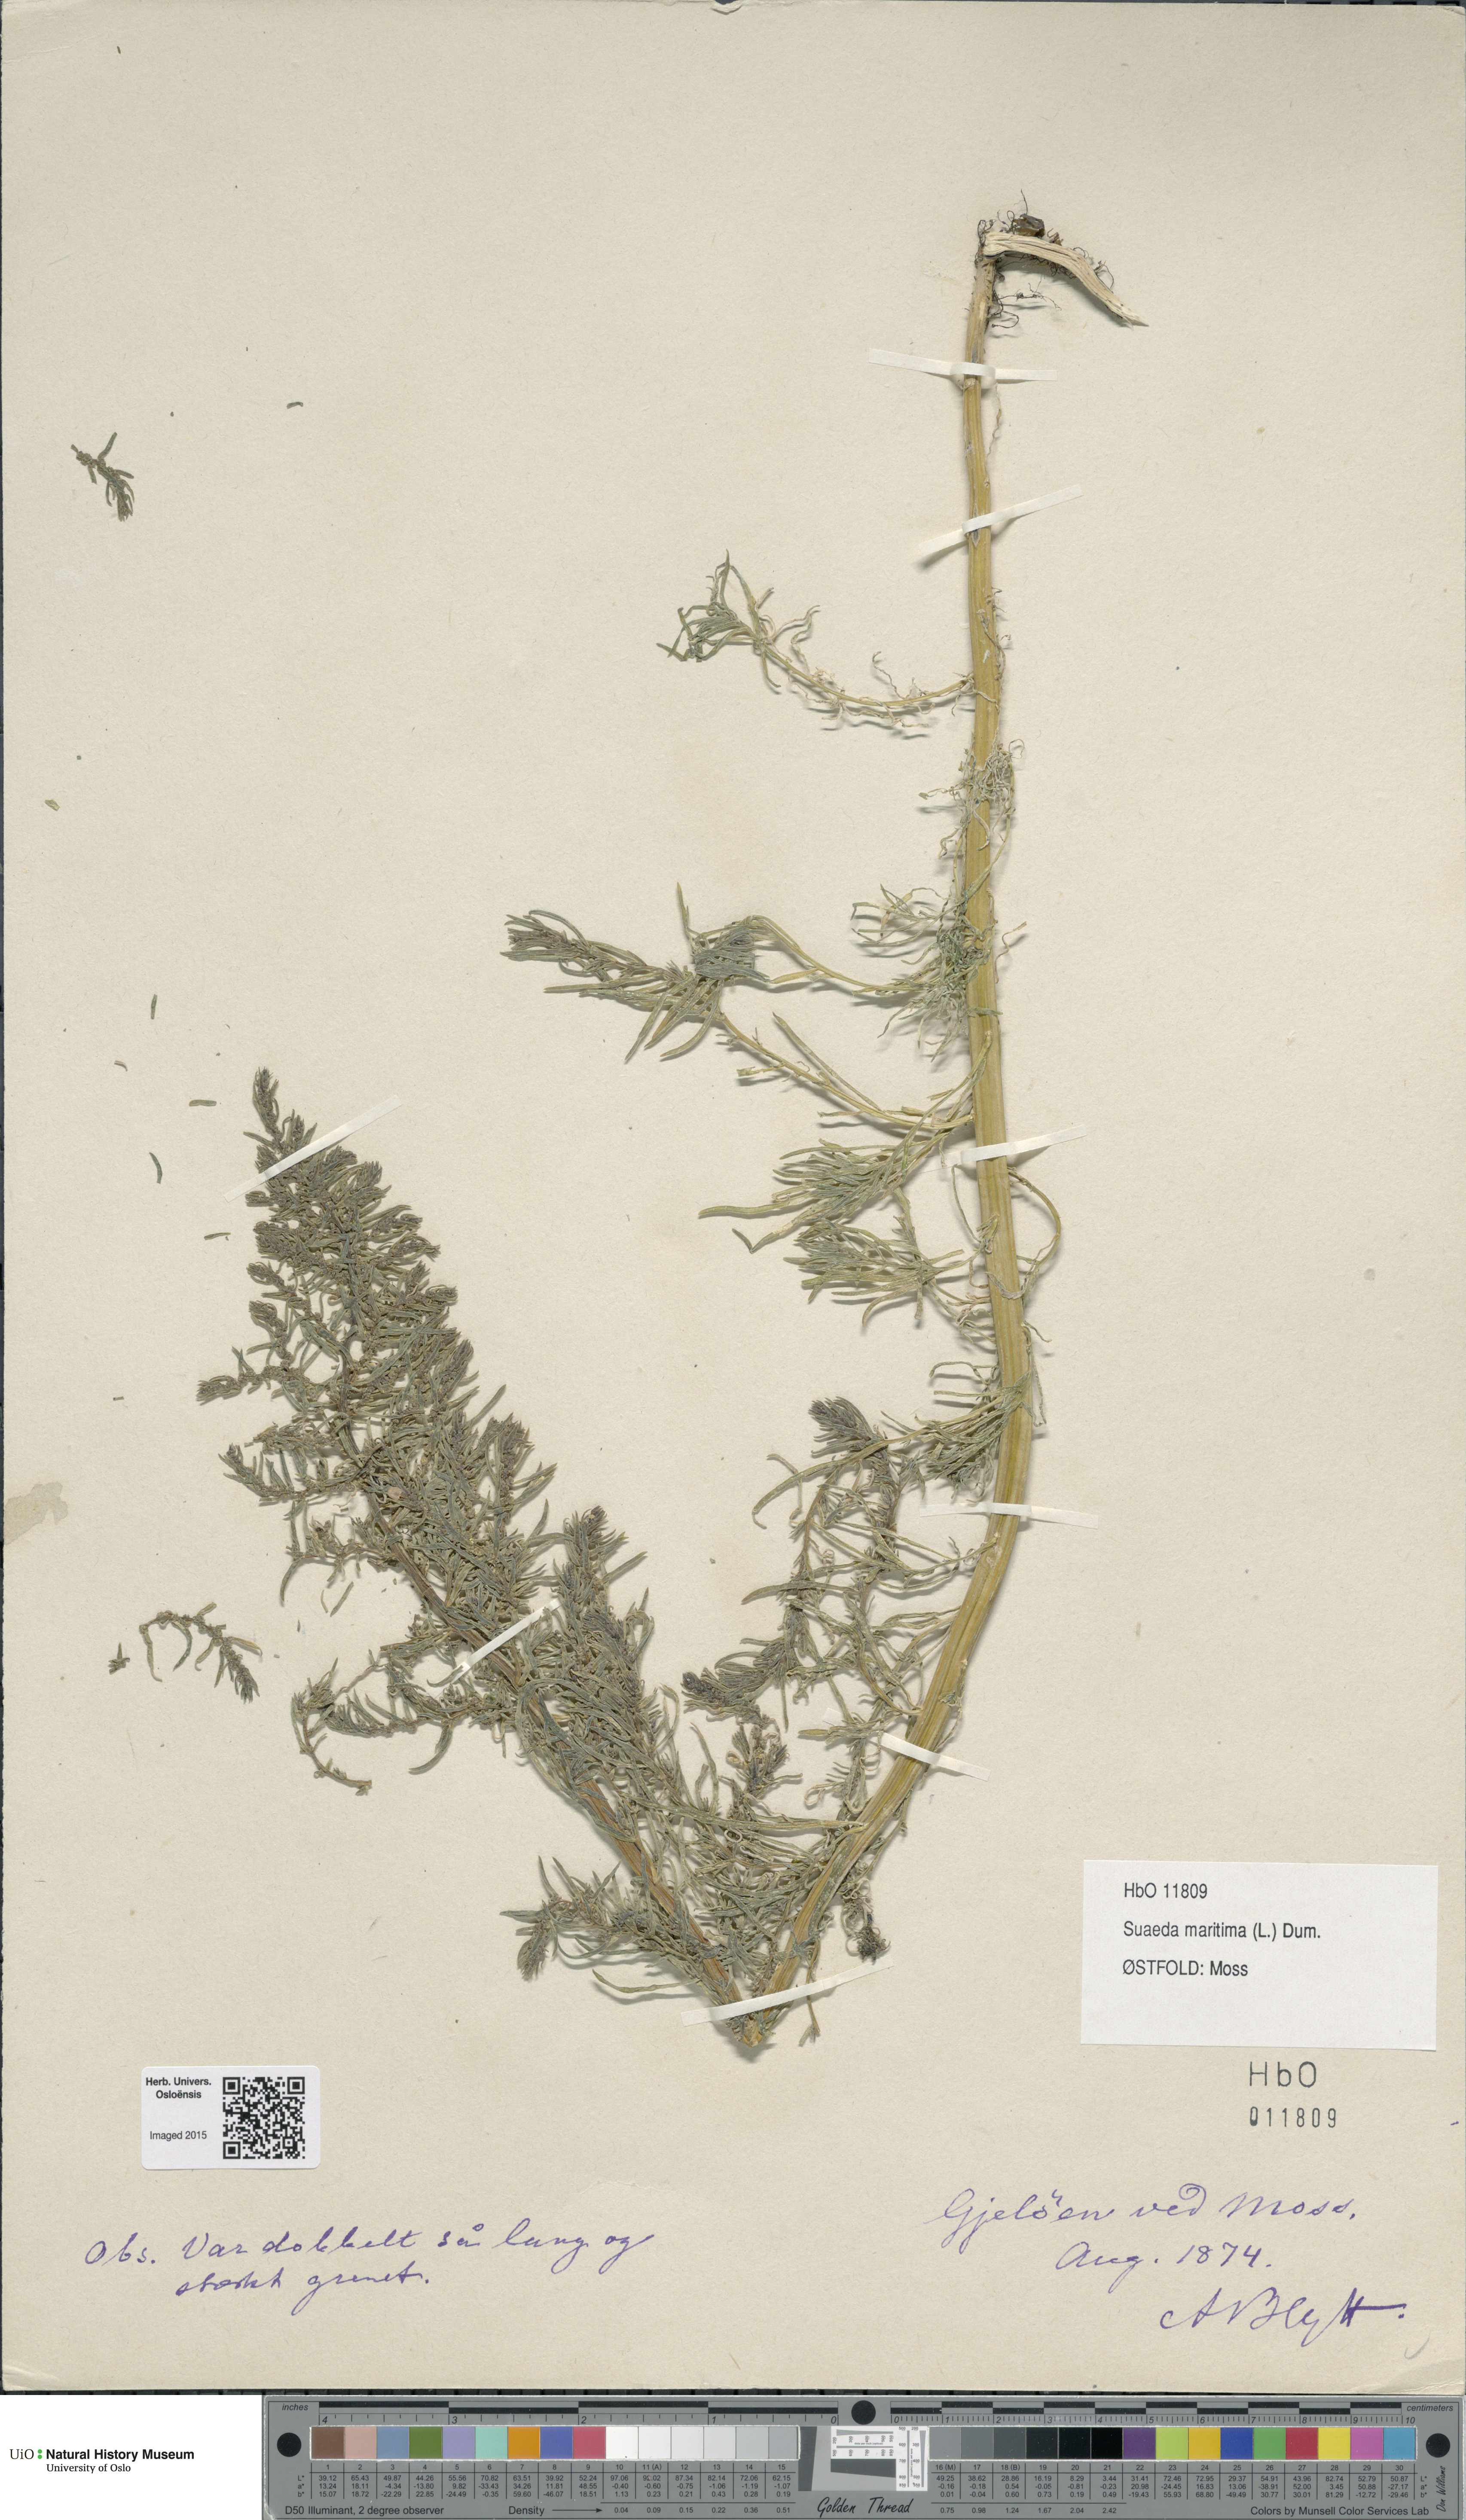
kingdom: Plantae
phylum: Tracheophyta
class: Magnoliopsida
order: Caryophyllales
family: Amaranthaceae
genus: Suaeda
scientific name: Suaeda maritima
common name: Annual sea-blite
